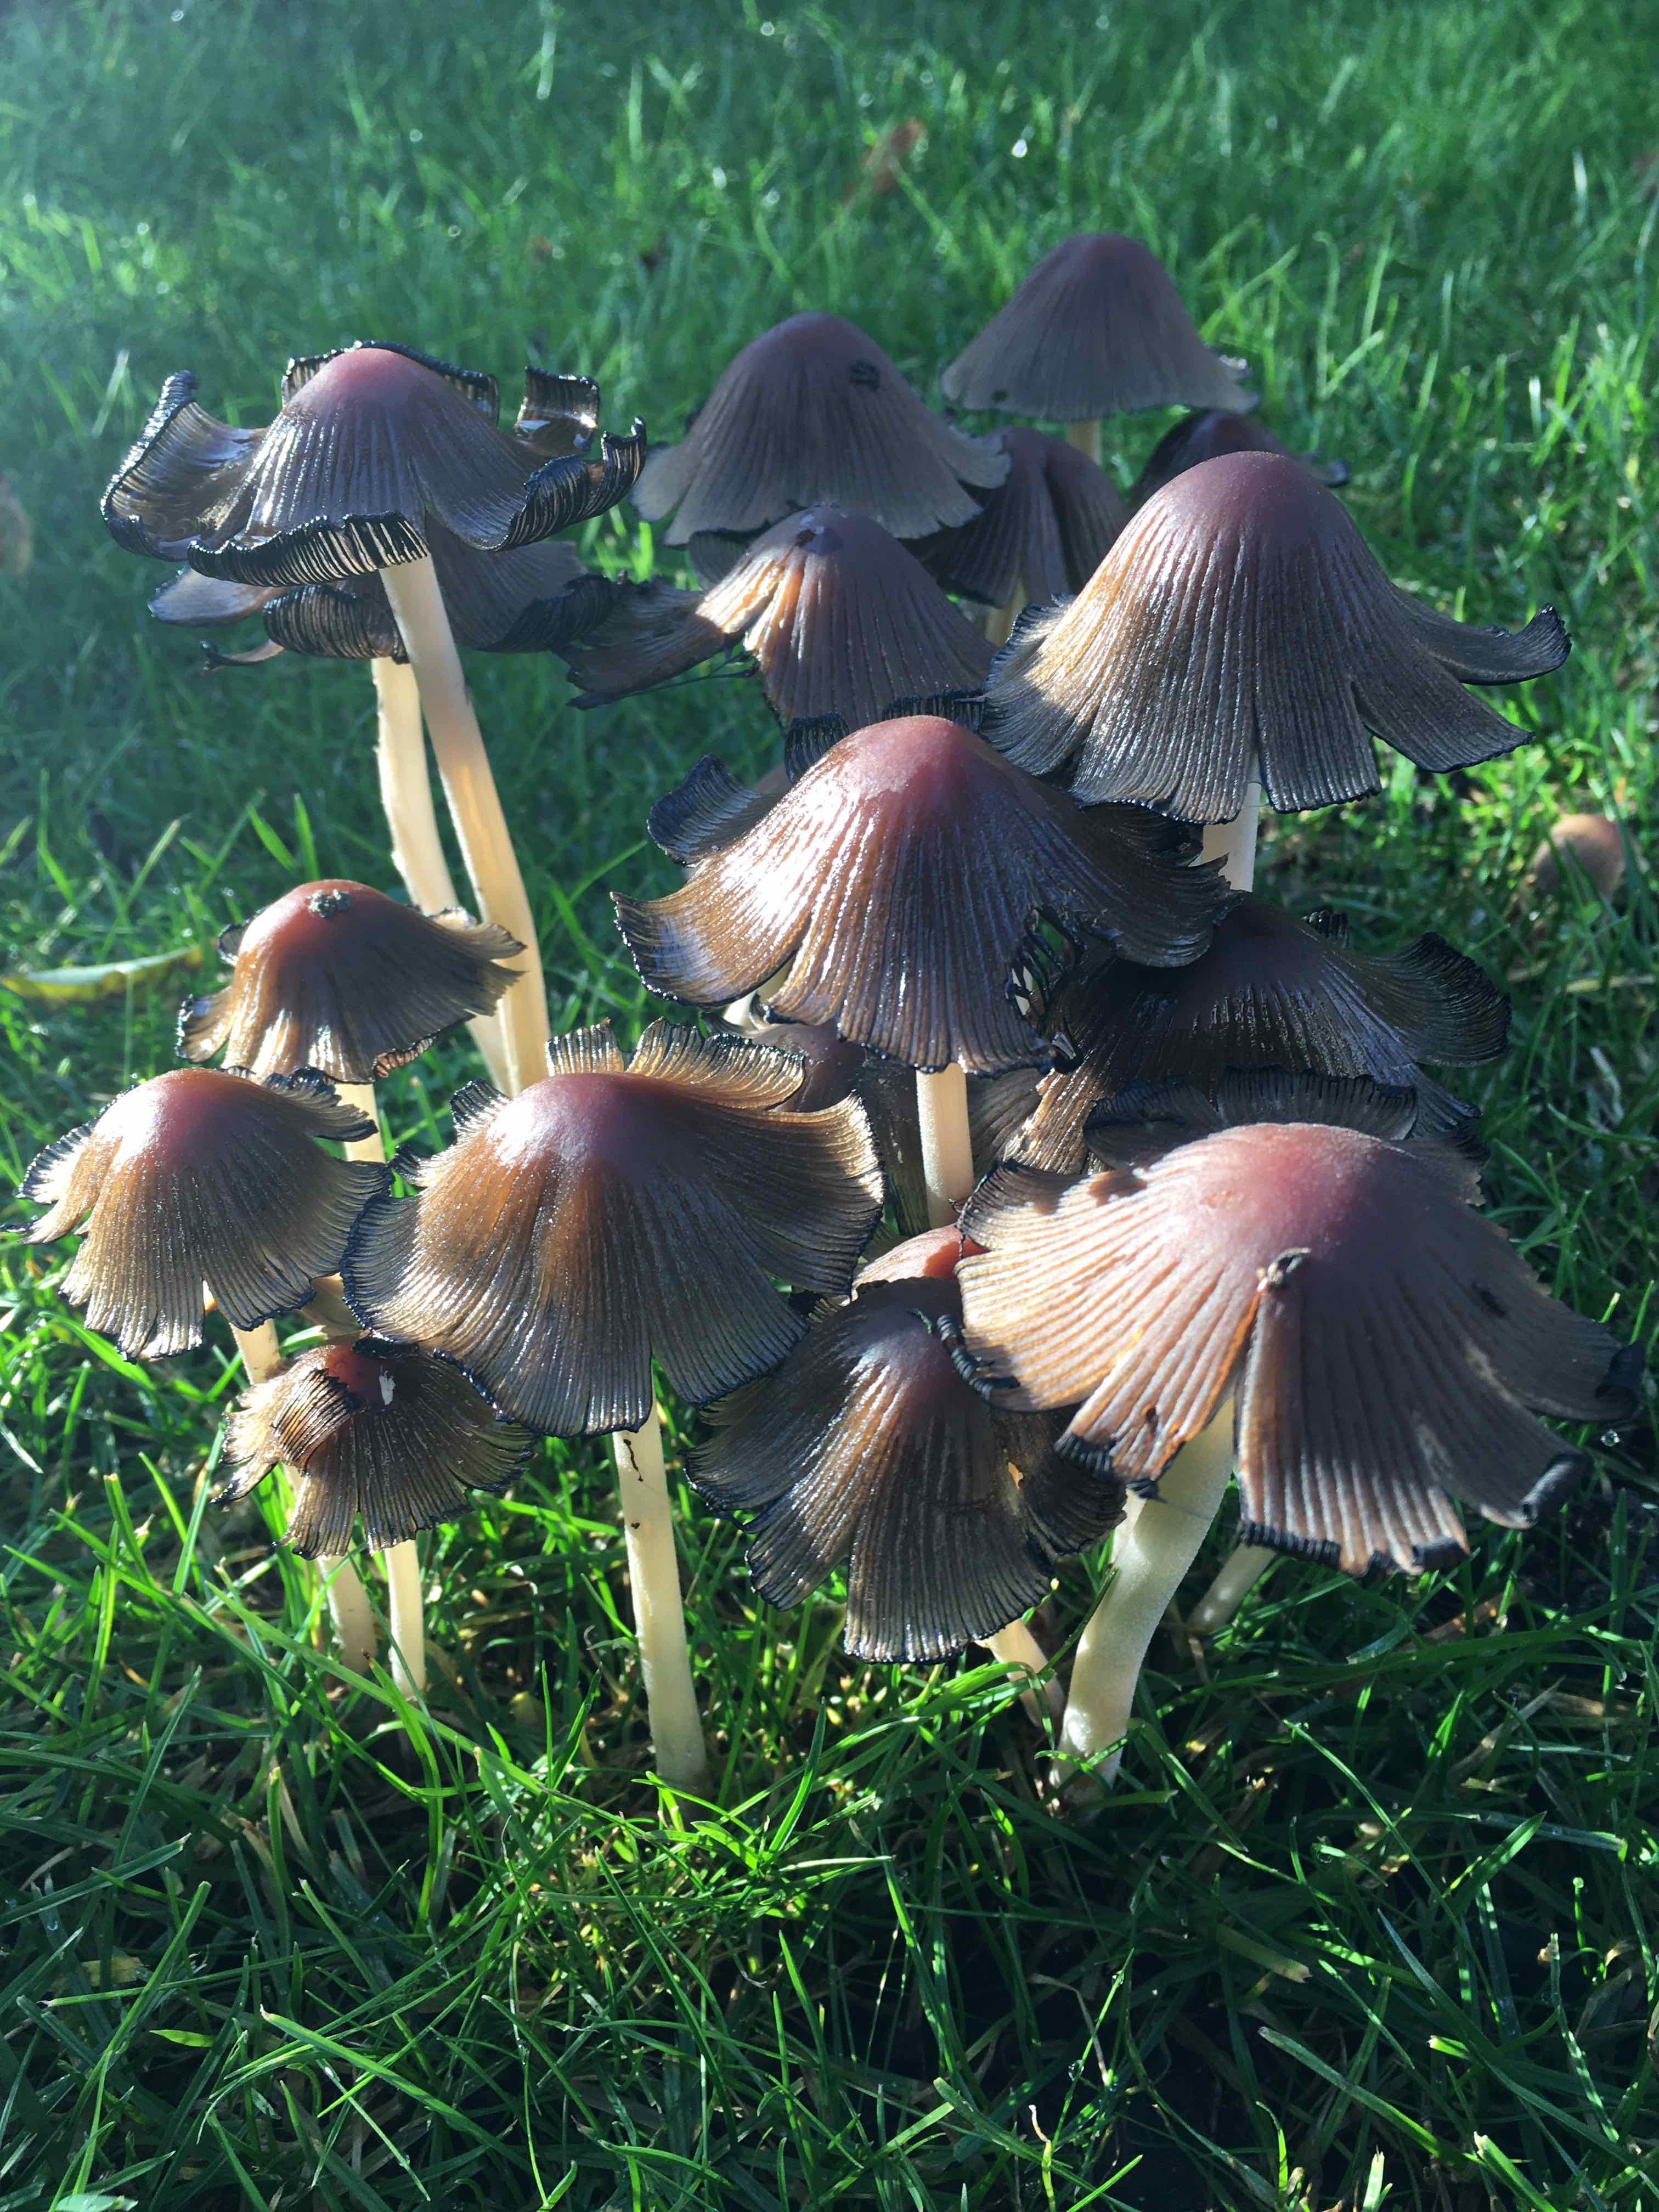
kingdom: Fungi
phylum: Basidiomycota
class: Agaricomycetes
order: Agaricales
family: Psathyrellaceae
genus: Coprinellus
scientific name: Coprinellus micaceus
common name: glimmer-blækhat
